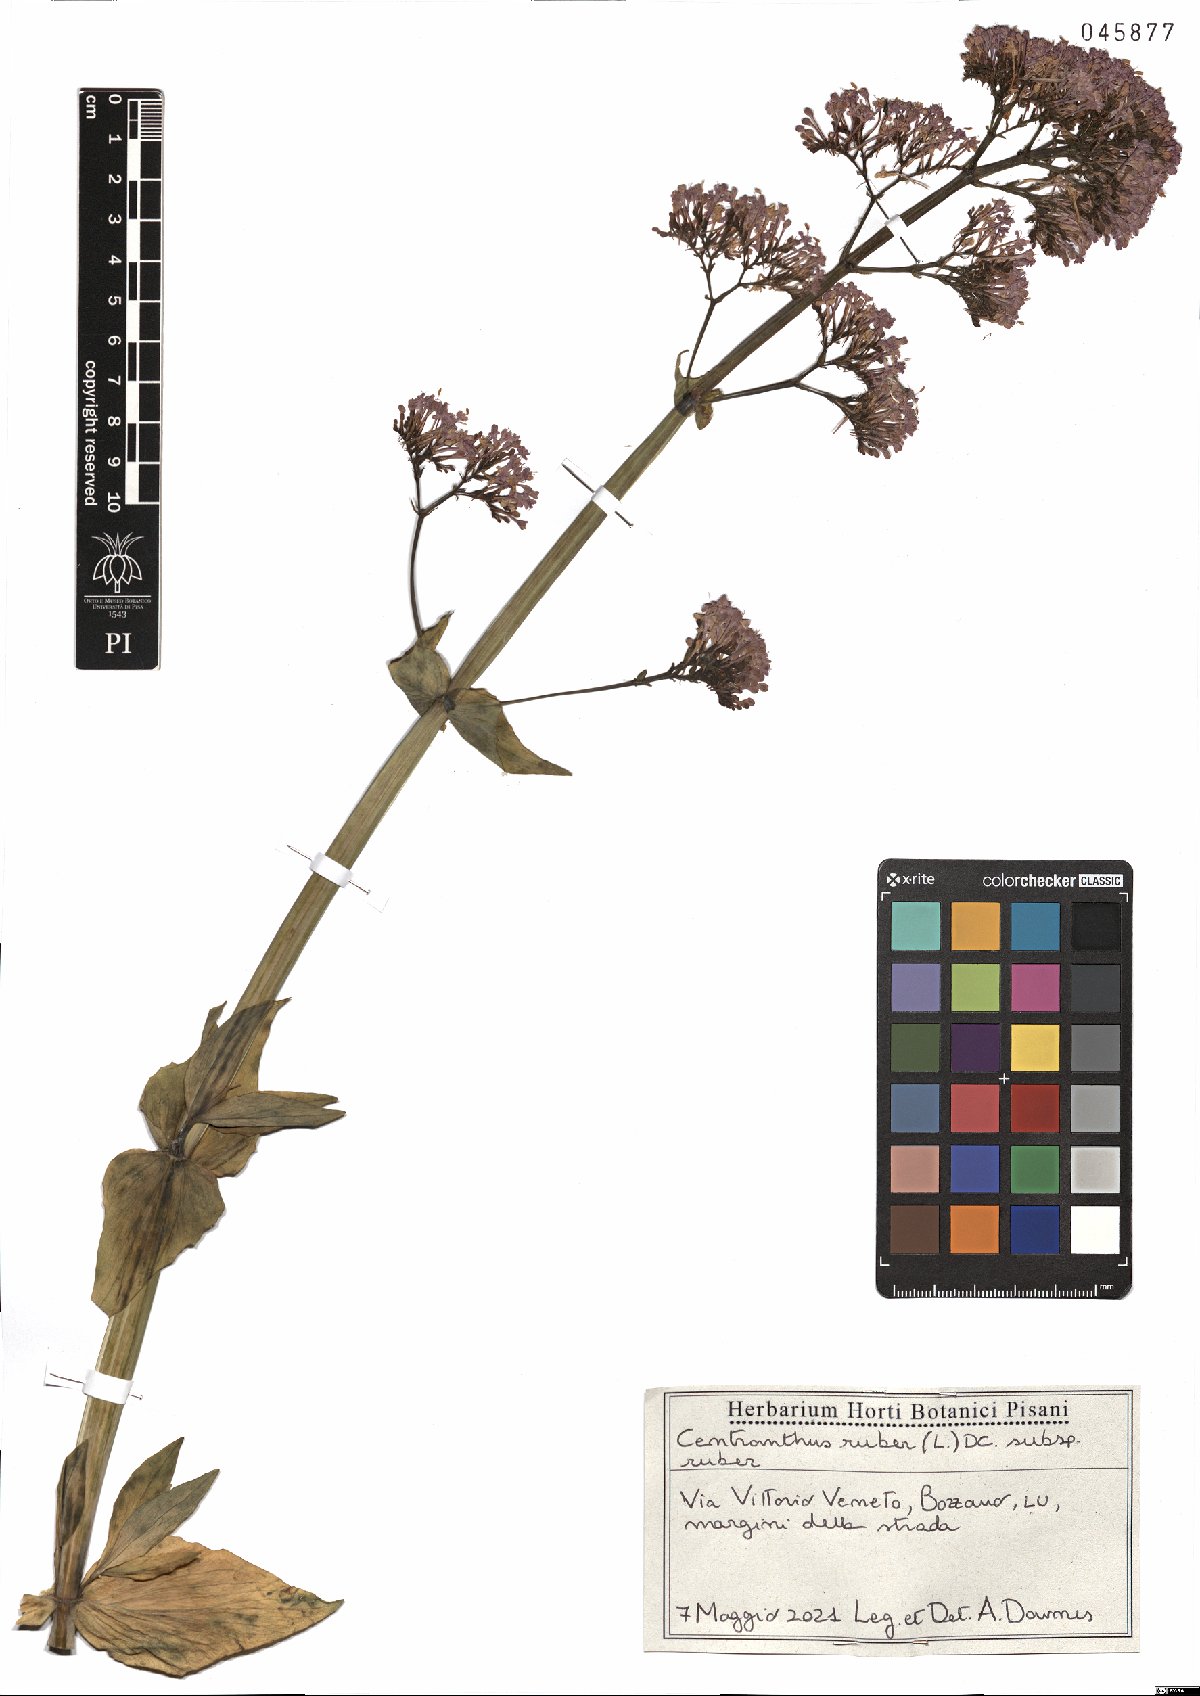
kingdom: Plantae
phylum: Tracheophyta
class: Magnoliopsida
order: Dipsacales
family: Caprifoliaceae
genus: Centranthus
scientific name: Centranthus ruber
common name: Red valerian
